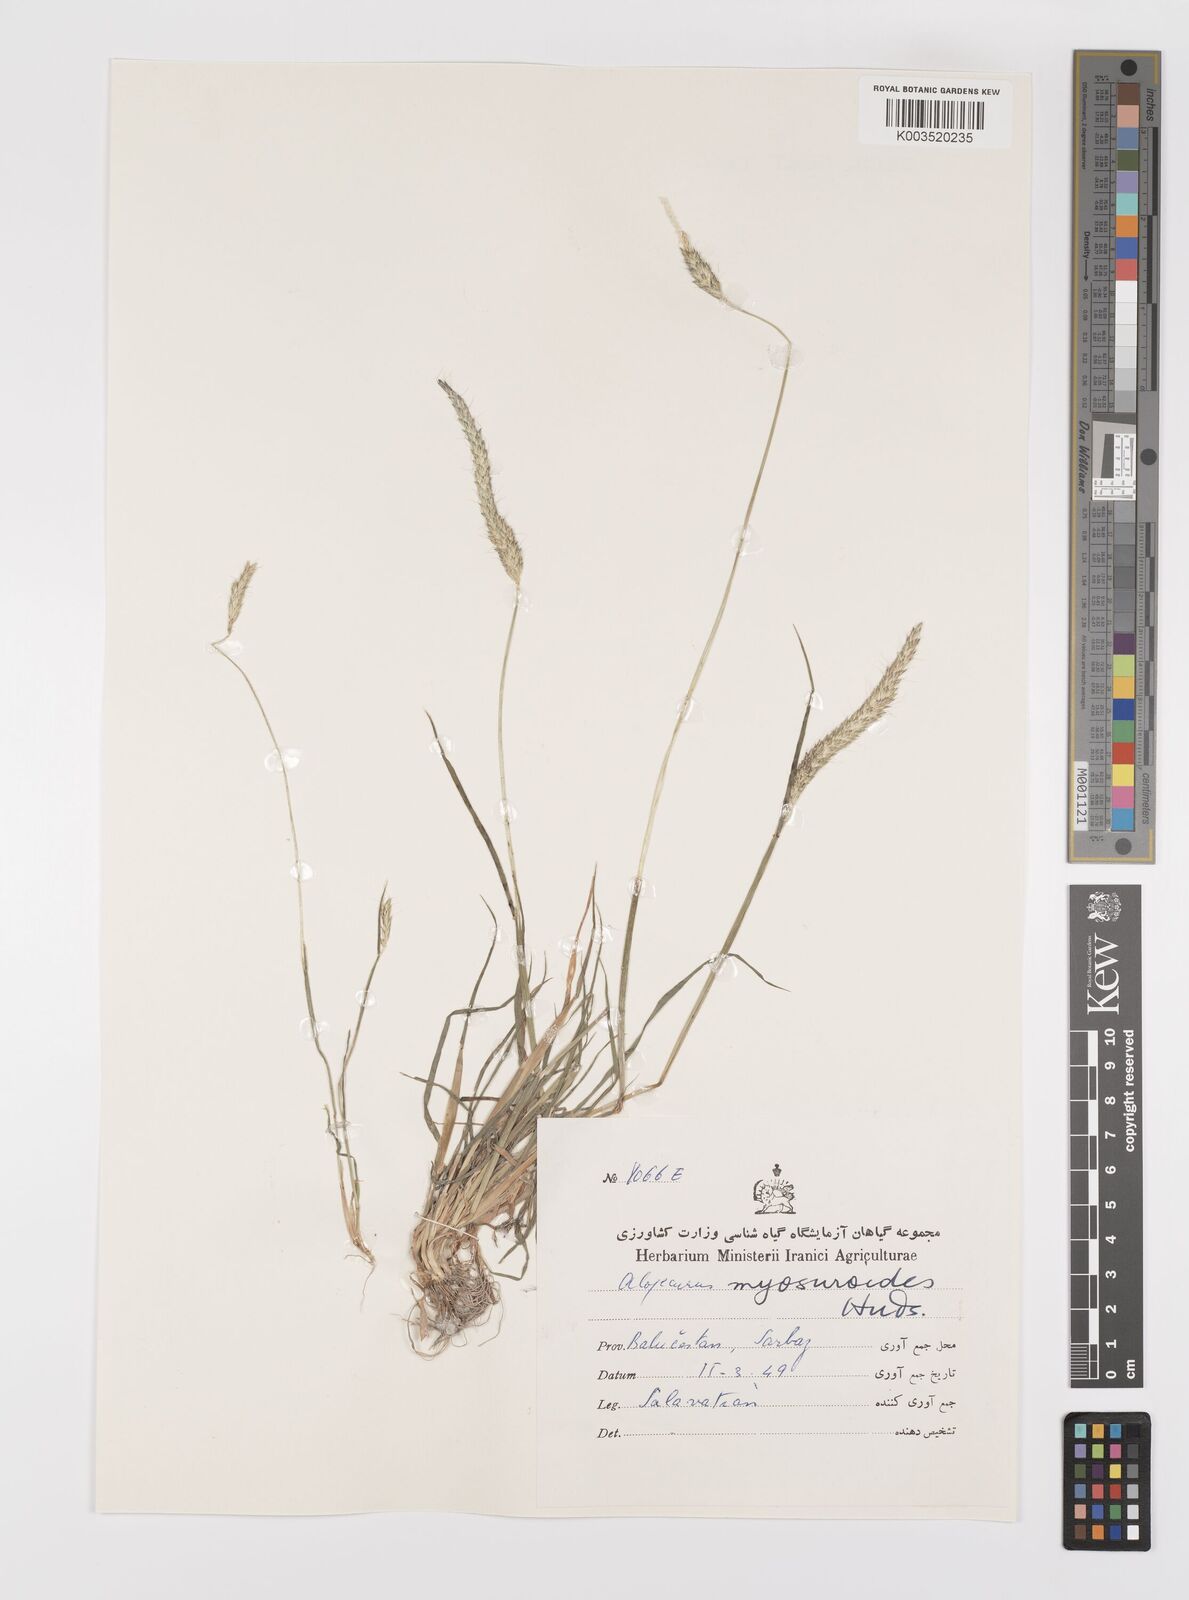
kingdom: Plantae
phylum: Tracheophyta
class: Liliopsida
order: Poales
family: Poaceae
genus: Alopecurus
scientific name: Alopecurus myosuroides
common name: Black-grass
